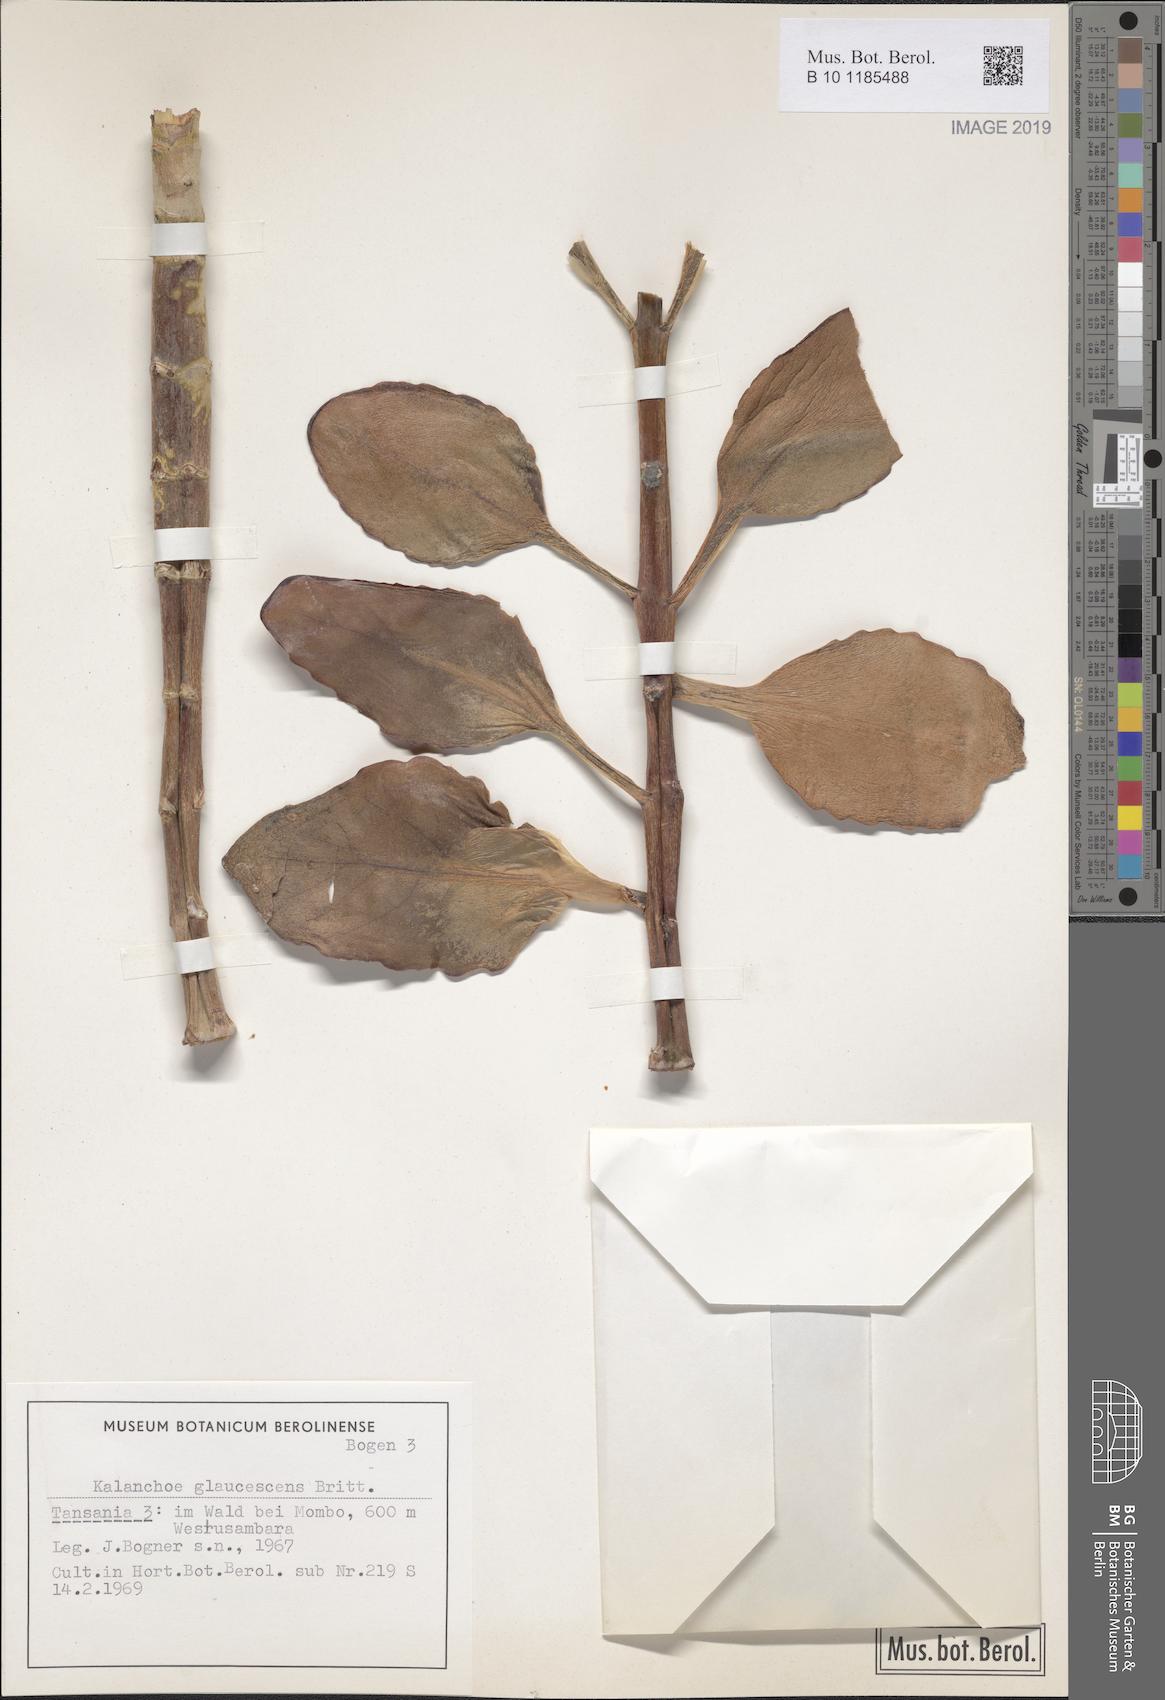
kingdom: Plantae
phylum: Tracheophyta
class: Magnoliopsida
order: Saxifragales
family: Crassulaceae
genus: Kalanchoe
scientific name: Kalanchoe glaucescens
